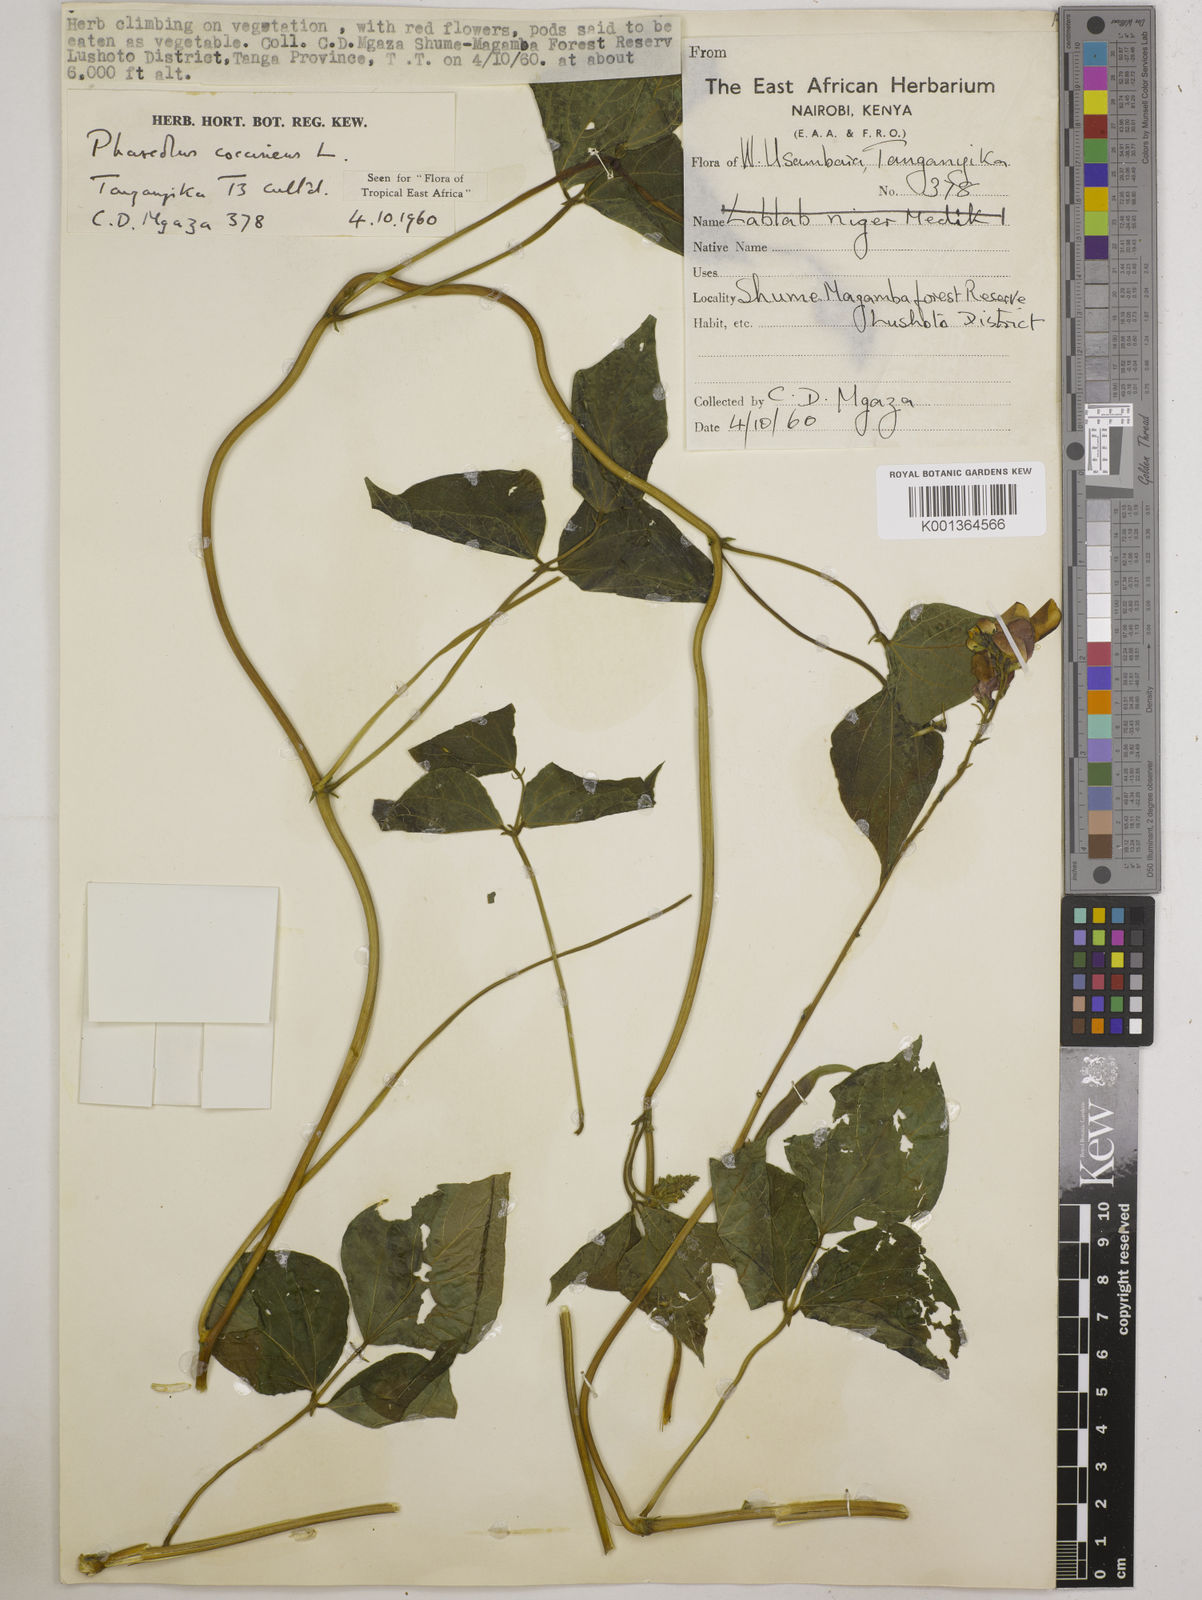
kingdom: Plantae
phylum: Tracheophyta
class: Magnoliopsida
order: Fabales
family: Fabaceae
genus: Phaseolus
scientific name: Phaseolus coccineus
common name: Runner bean
